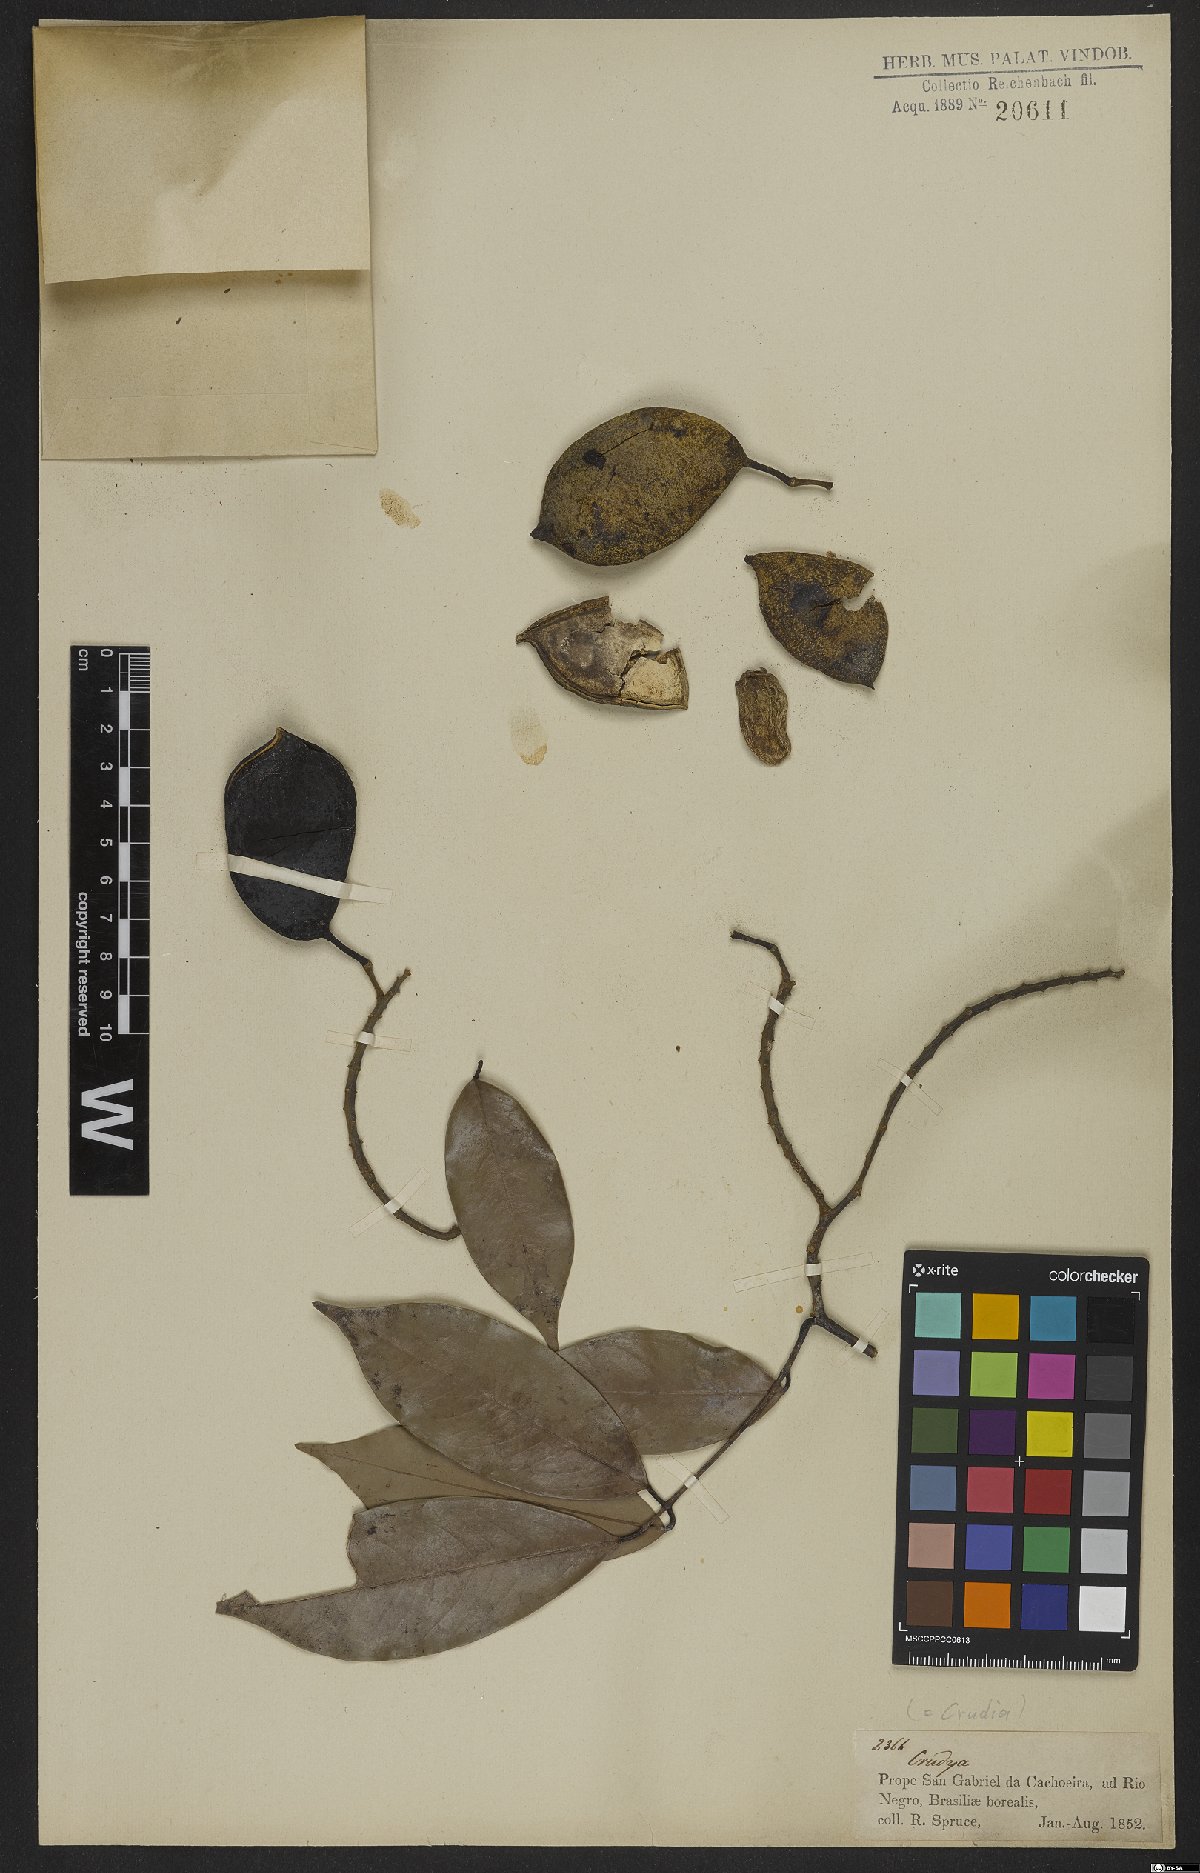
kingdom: Plantae
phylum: Tracheophyta
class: Magnoliopsida
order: Fabales
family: Fabaceae
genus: Crudia
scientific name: Crudia
